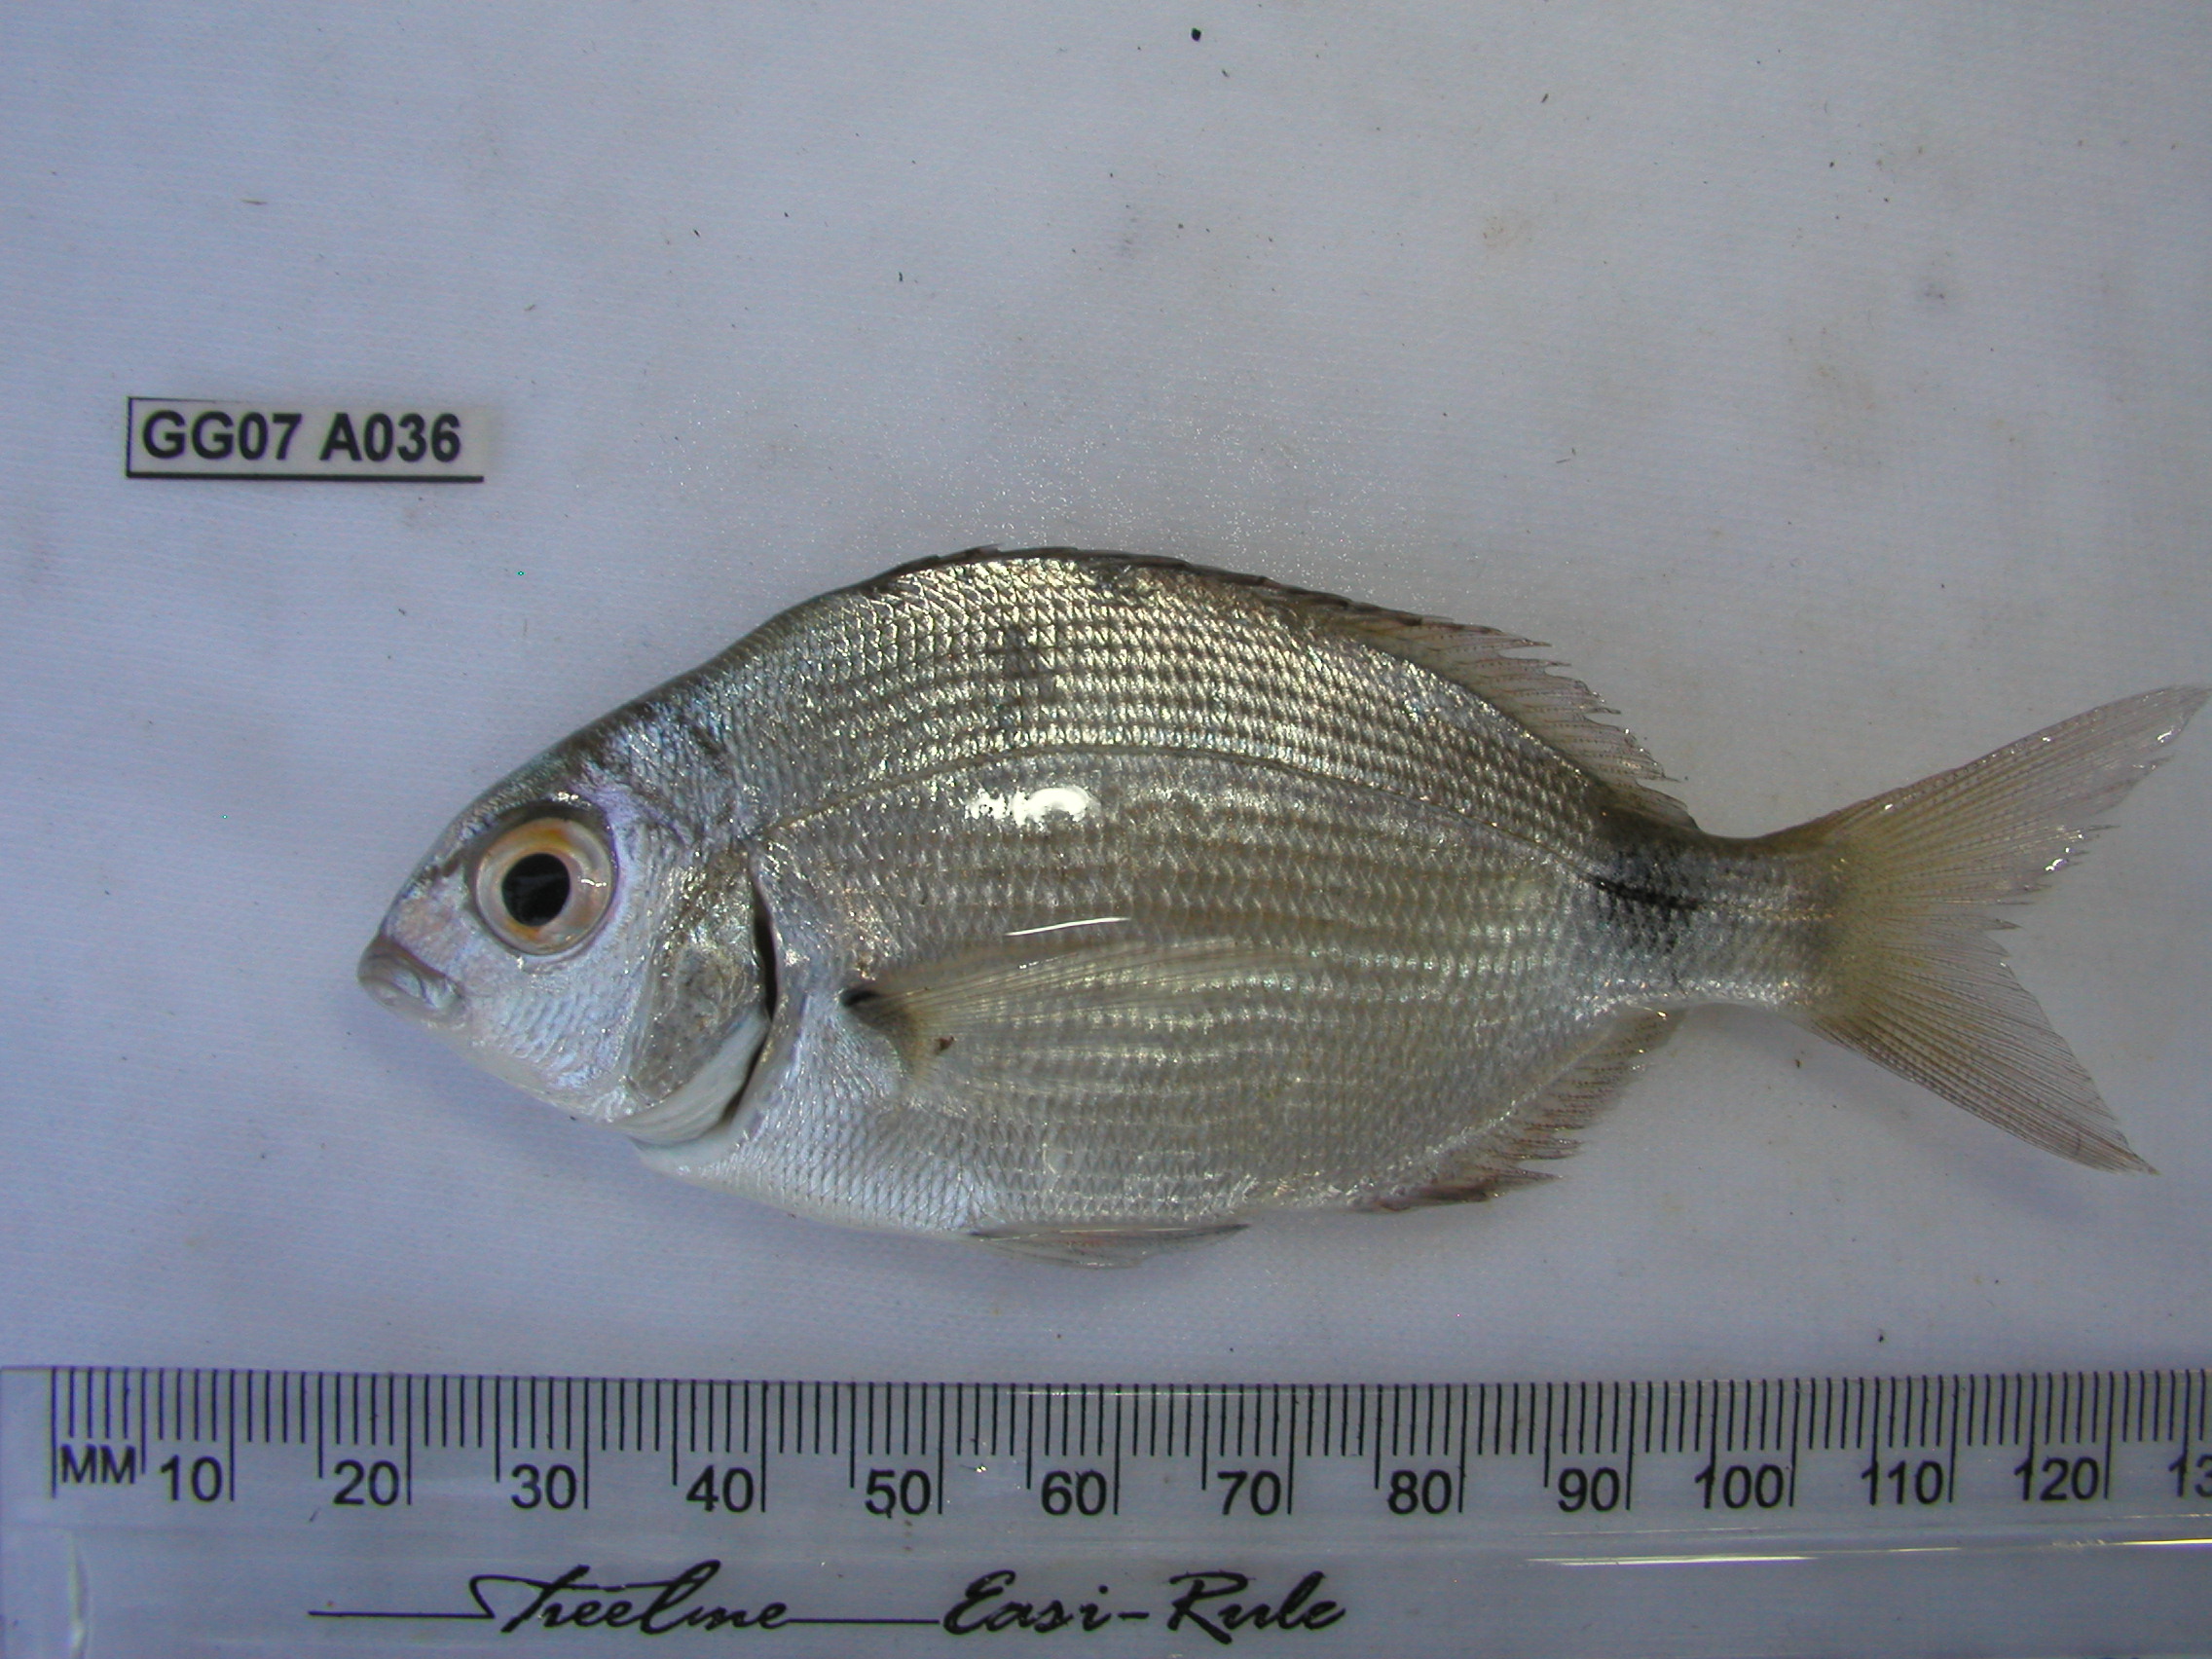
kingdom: Animalia
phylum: Chordata
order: Perciformes
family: Sparidae
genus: Diplodus
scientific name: Diplodus capensis
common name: Blacktail
